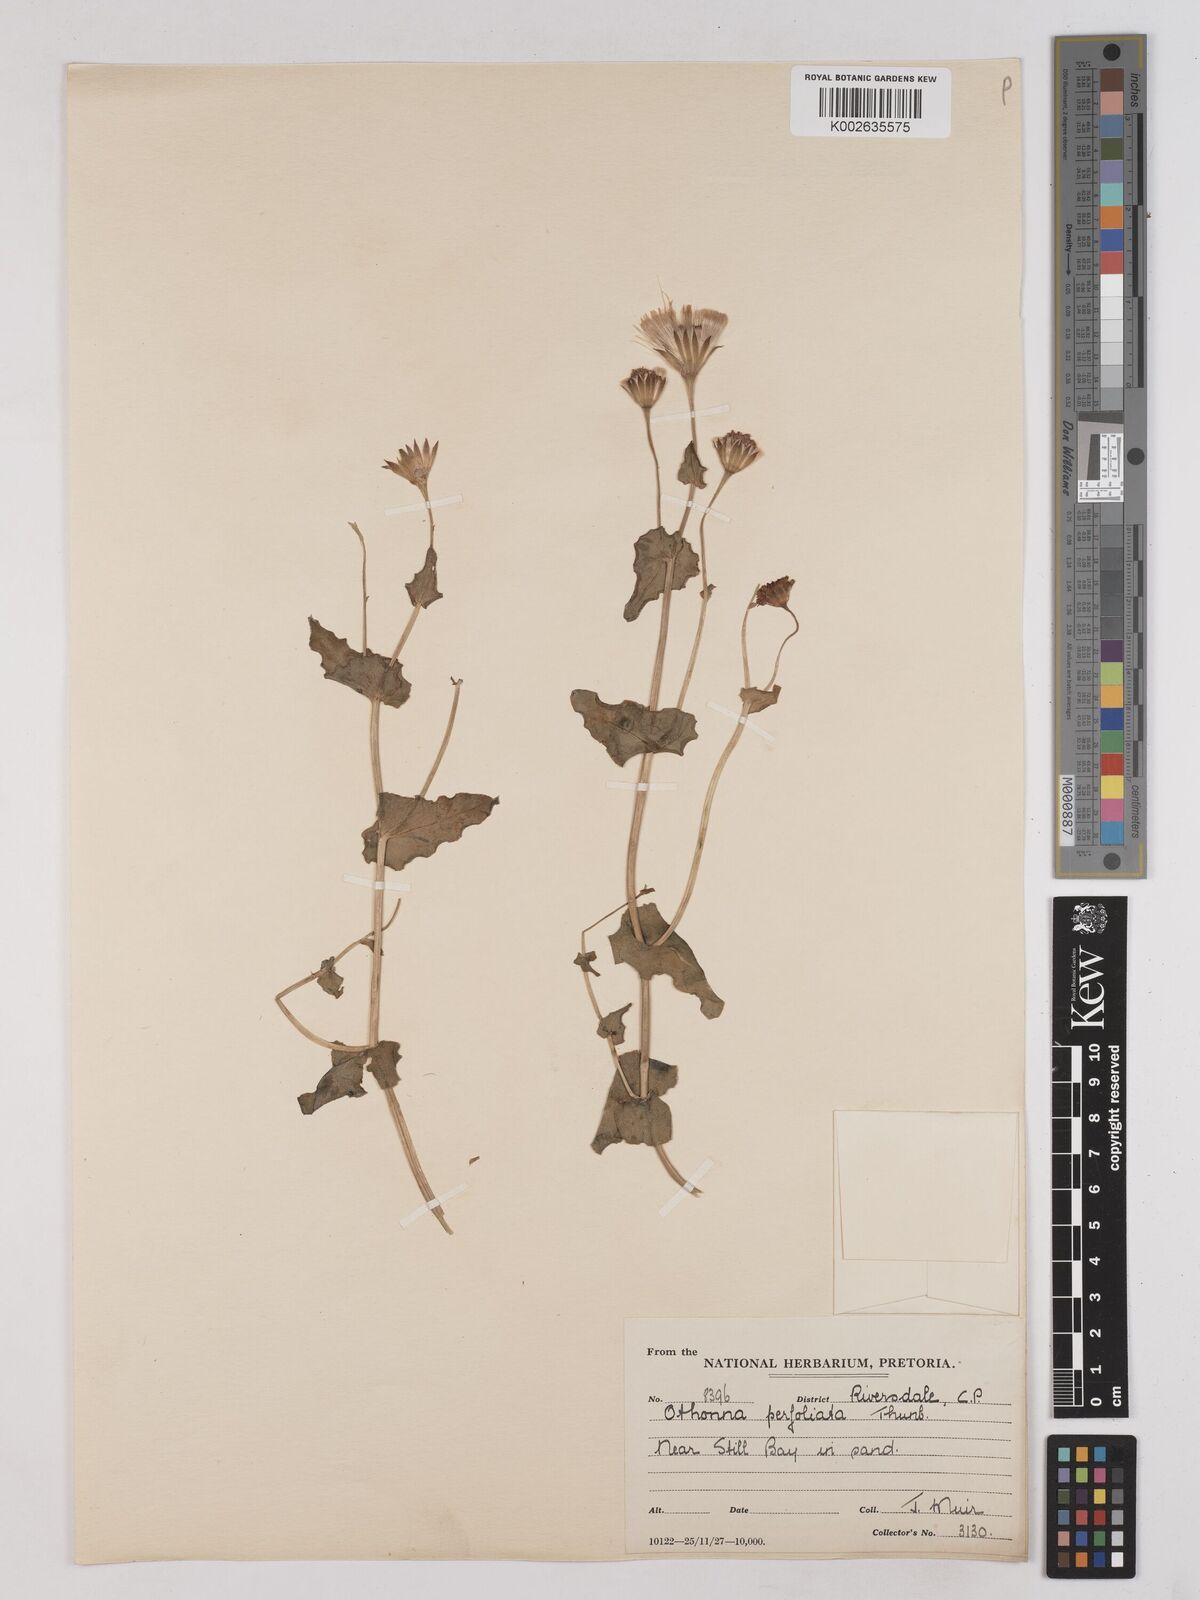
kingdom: Plantae
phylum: Tracheophyta
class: Magnoliopsida
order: Asterales
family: Asteraceae
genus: Othonna
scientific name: Othonna bulbosa
